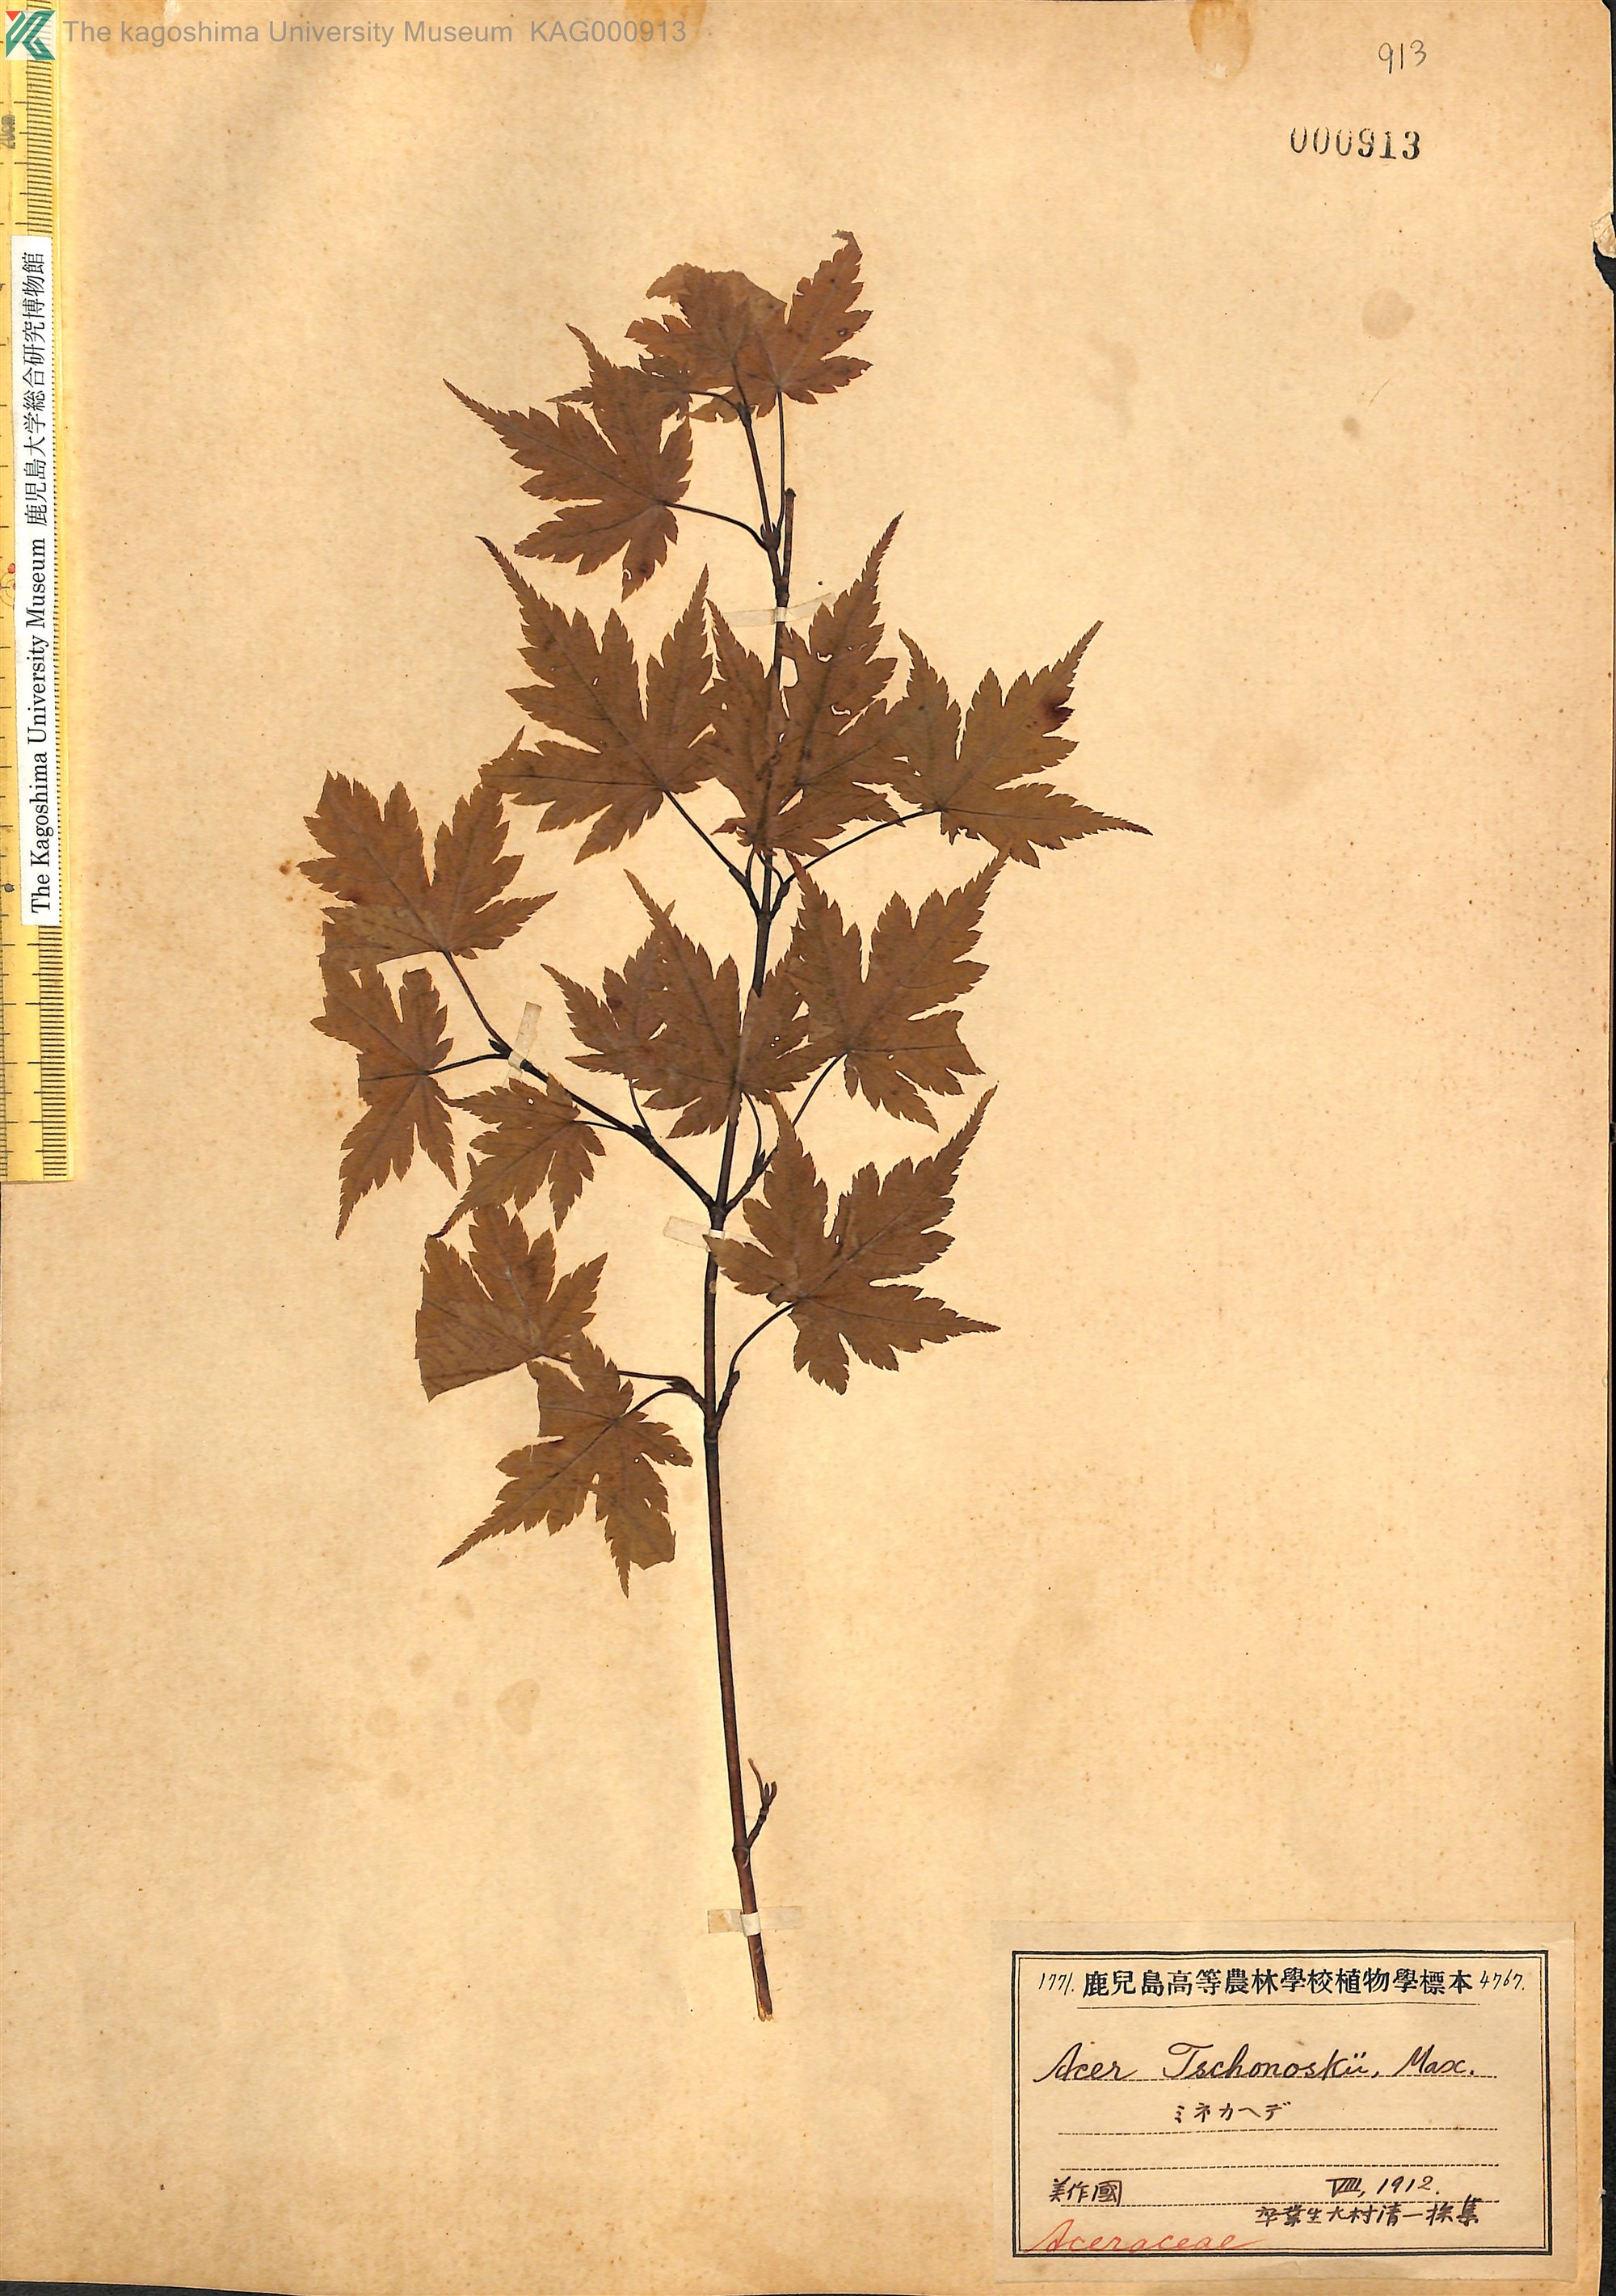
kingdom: Plantae
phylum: Tracheophyta
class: Magnoliopsida
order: Sapindales
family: Sapindaceae
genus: Acer
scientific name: Acer tschonoskii
